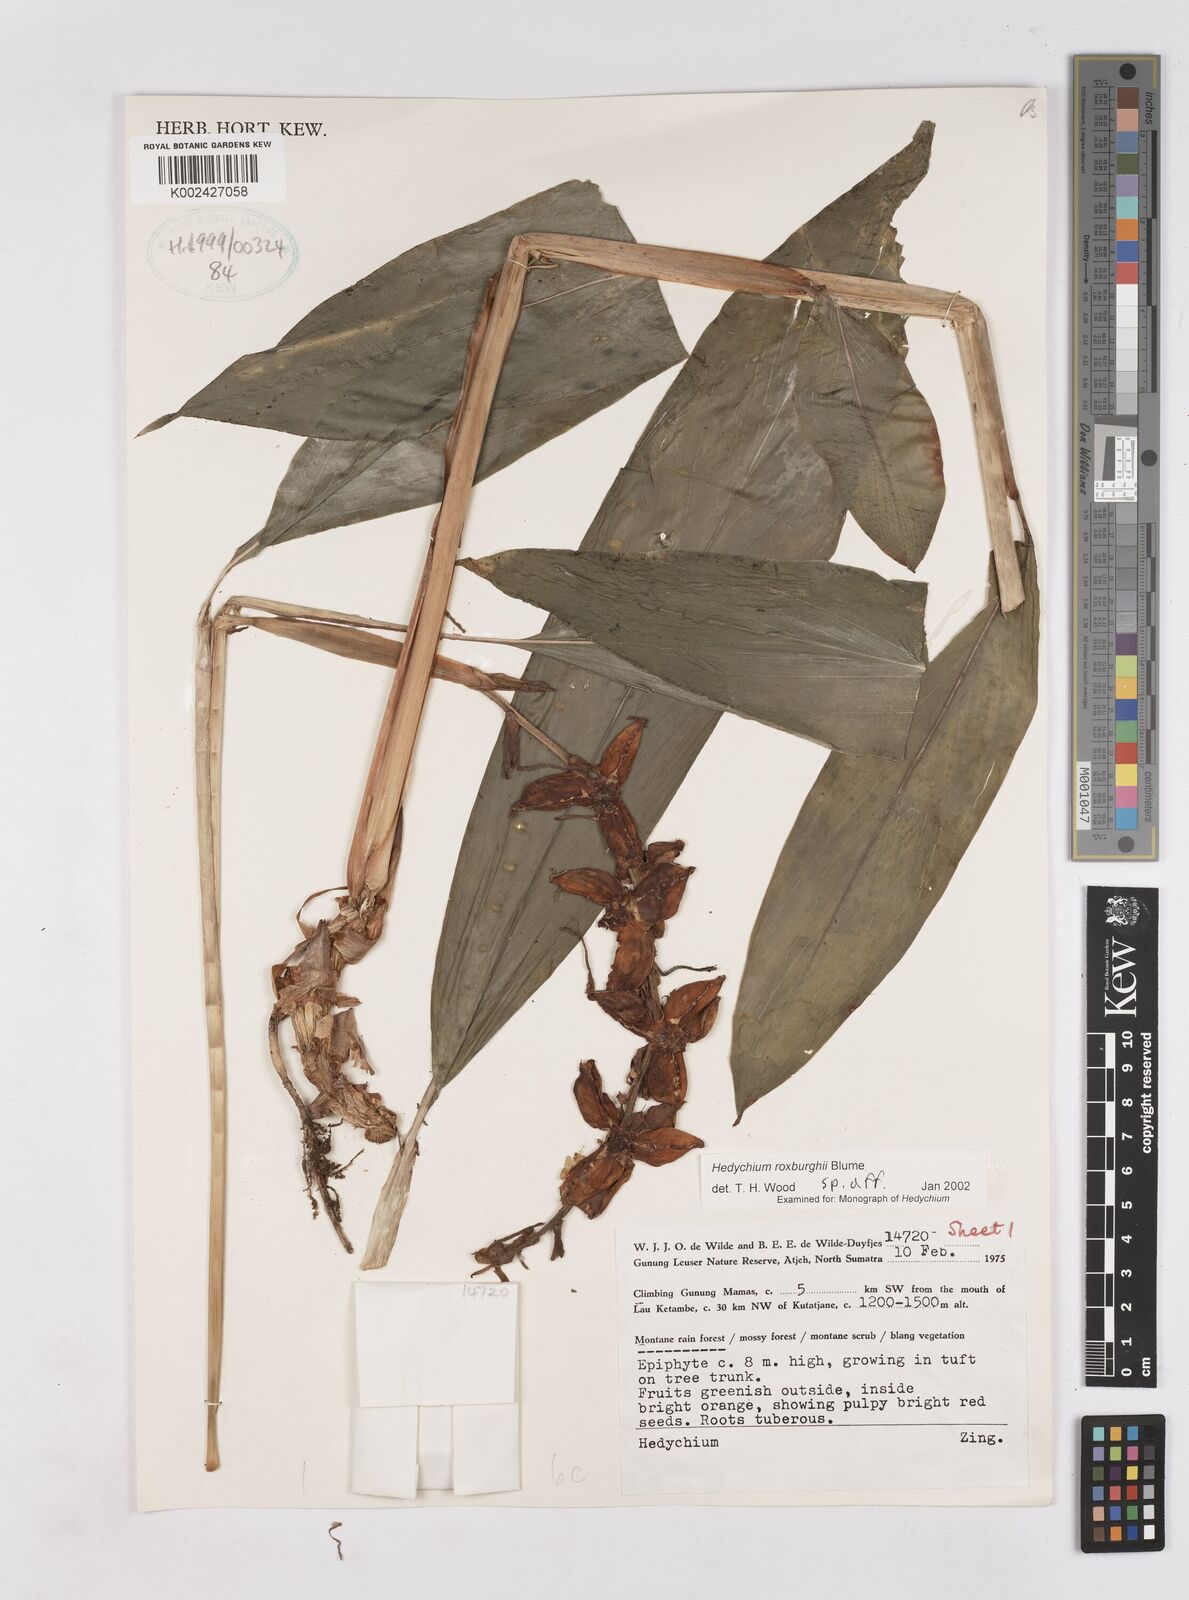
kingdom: Plantae
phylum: Tracheophyta
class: Liliopsida
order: Zingiberales
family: Zingiberaceae
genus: Hedychium
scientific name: Hedychium roxburghii
